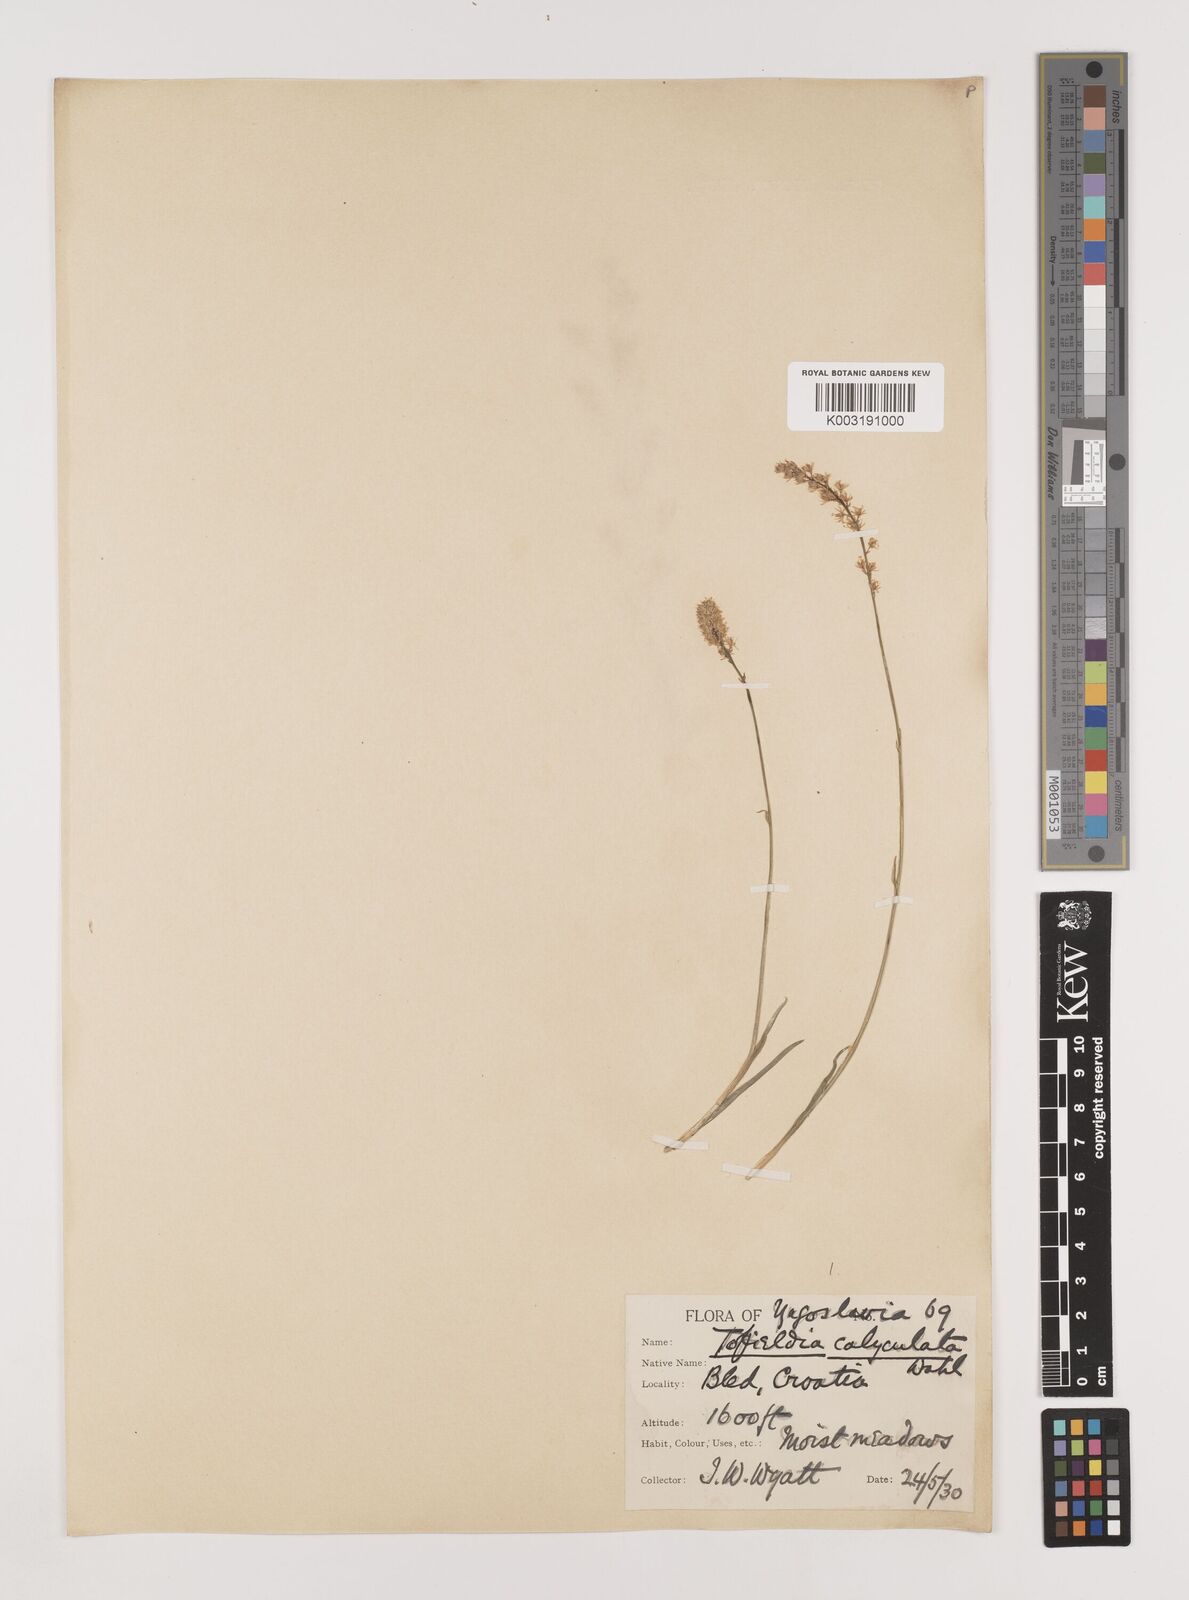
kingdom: Plantae
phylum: Tracheophyta
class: Liliopsida
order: Alismatales
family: Tofieldiaceae
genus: Tofieldia
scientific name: Tofieldia calyculata
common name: German-asphodel
